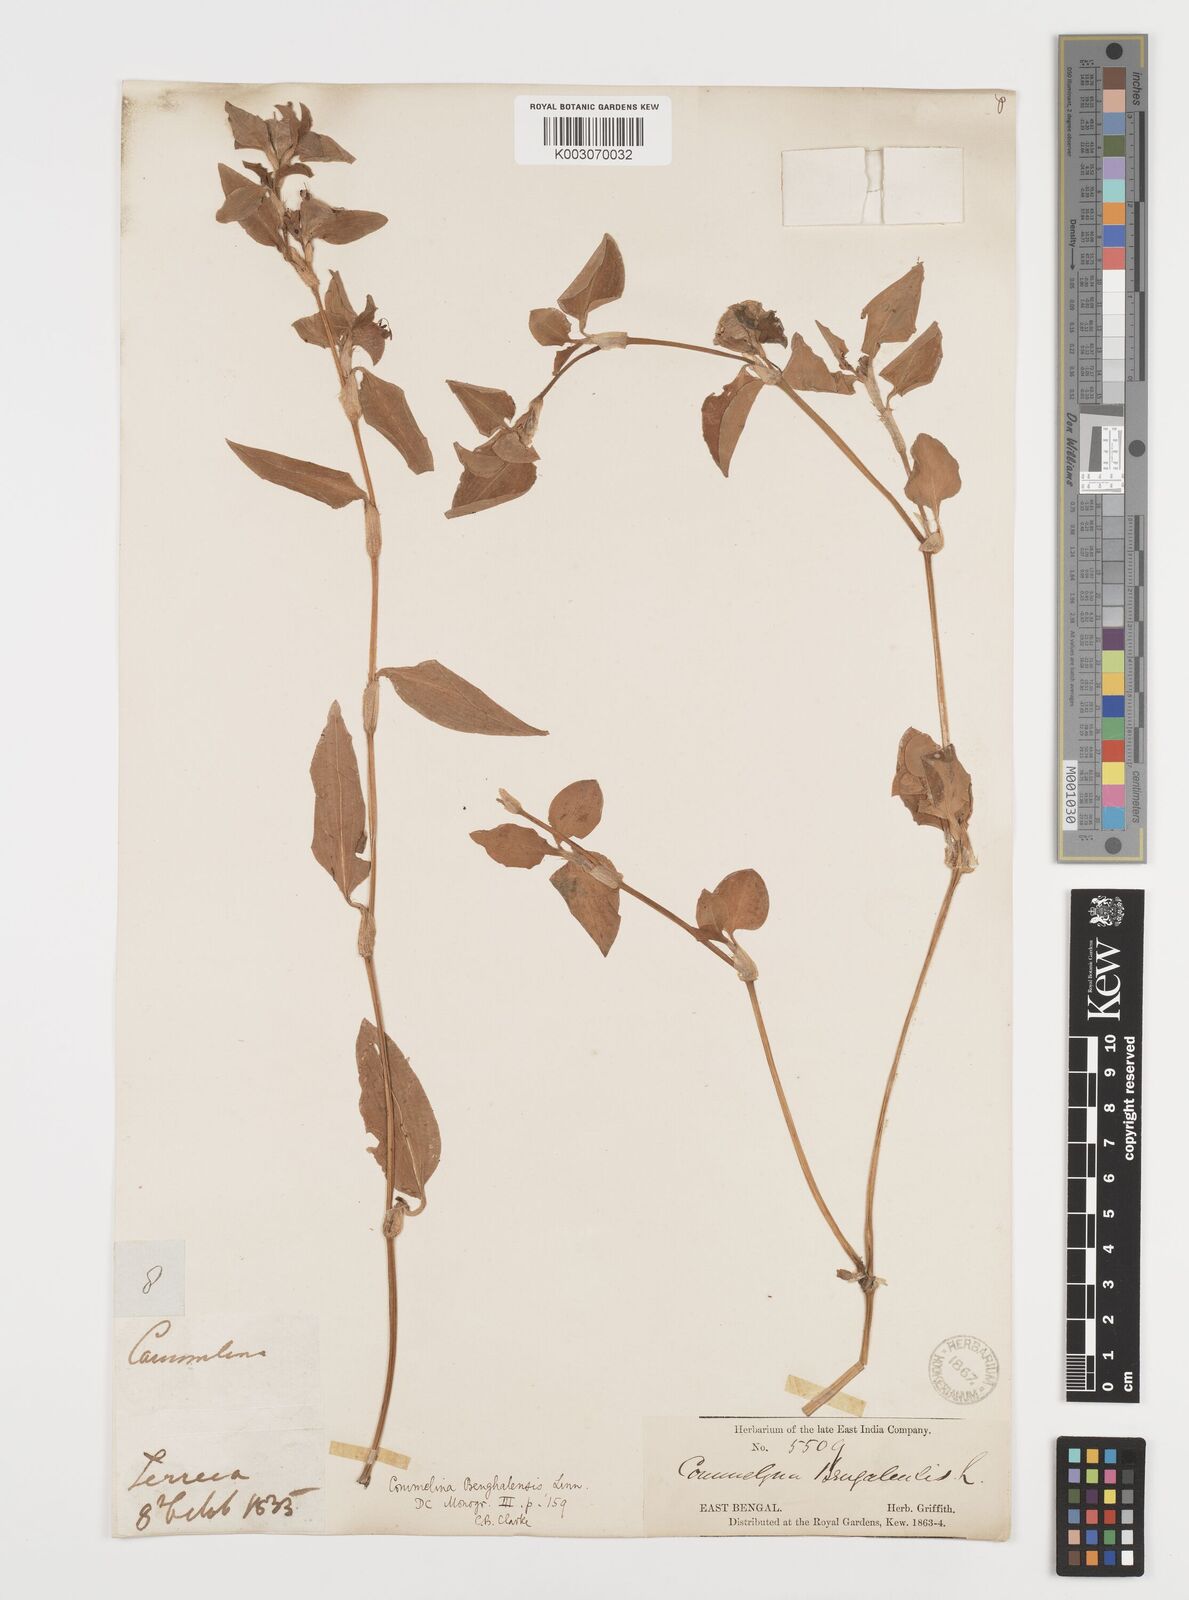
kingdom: Plantae
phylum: Tracheophyta
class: Liliopsida
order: Commelinales
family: Commelinaceae
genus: Commelina
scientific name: Commelina
